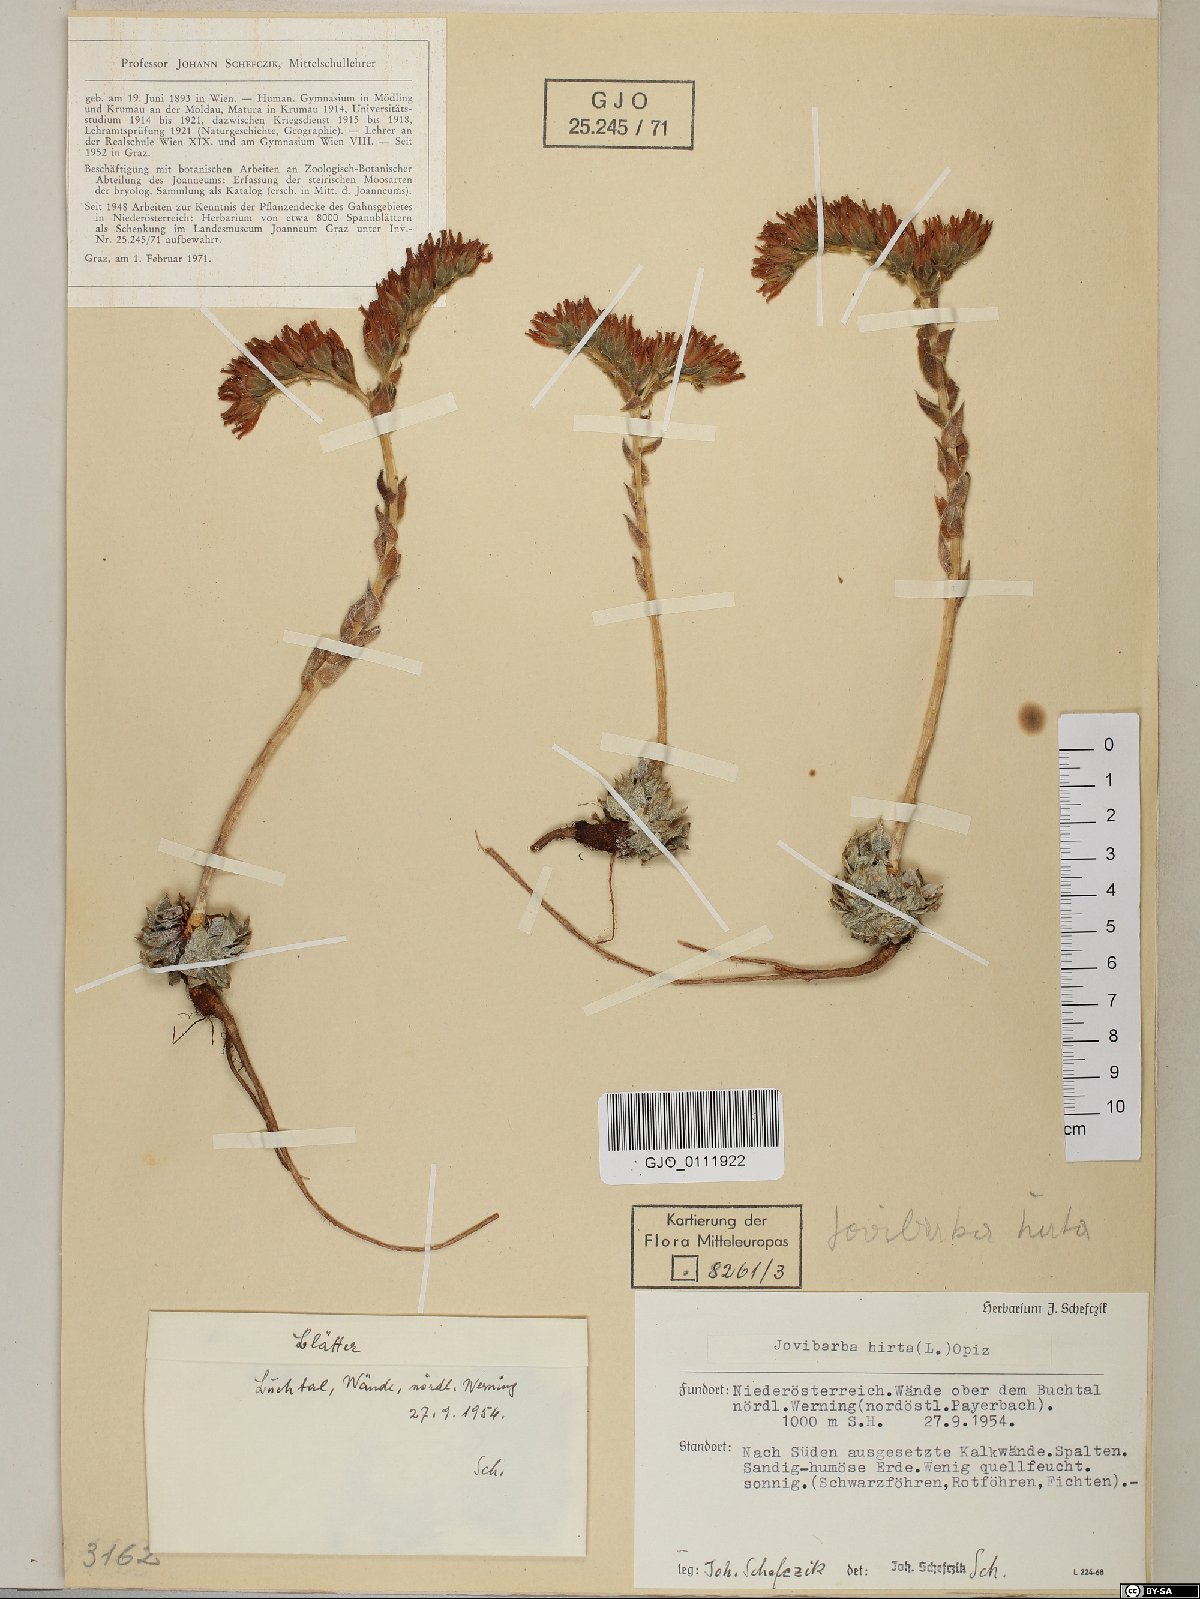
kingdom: Plantae
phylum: Tracheophyta
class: Magnoliopsida
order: Saxifragales
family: Crassulaceae
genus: Sempervivum
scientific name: Sempervivum globiferum
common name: Rolling hen-and-chicks
